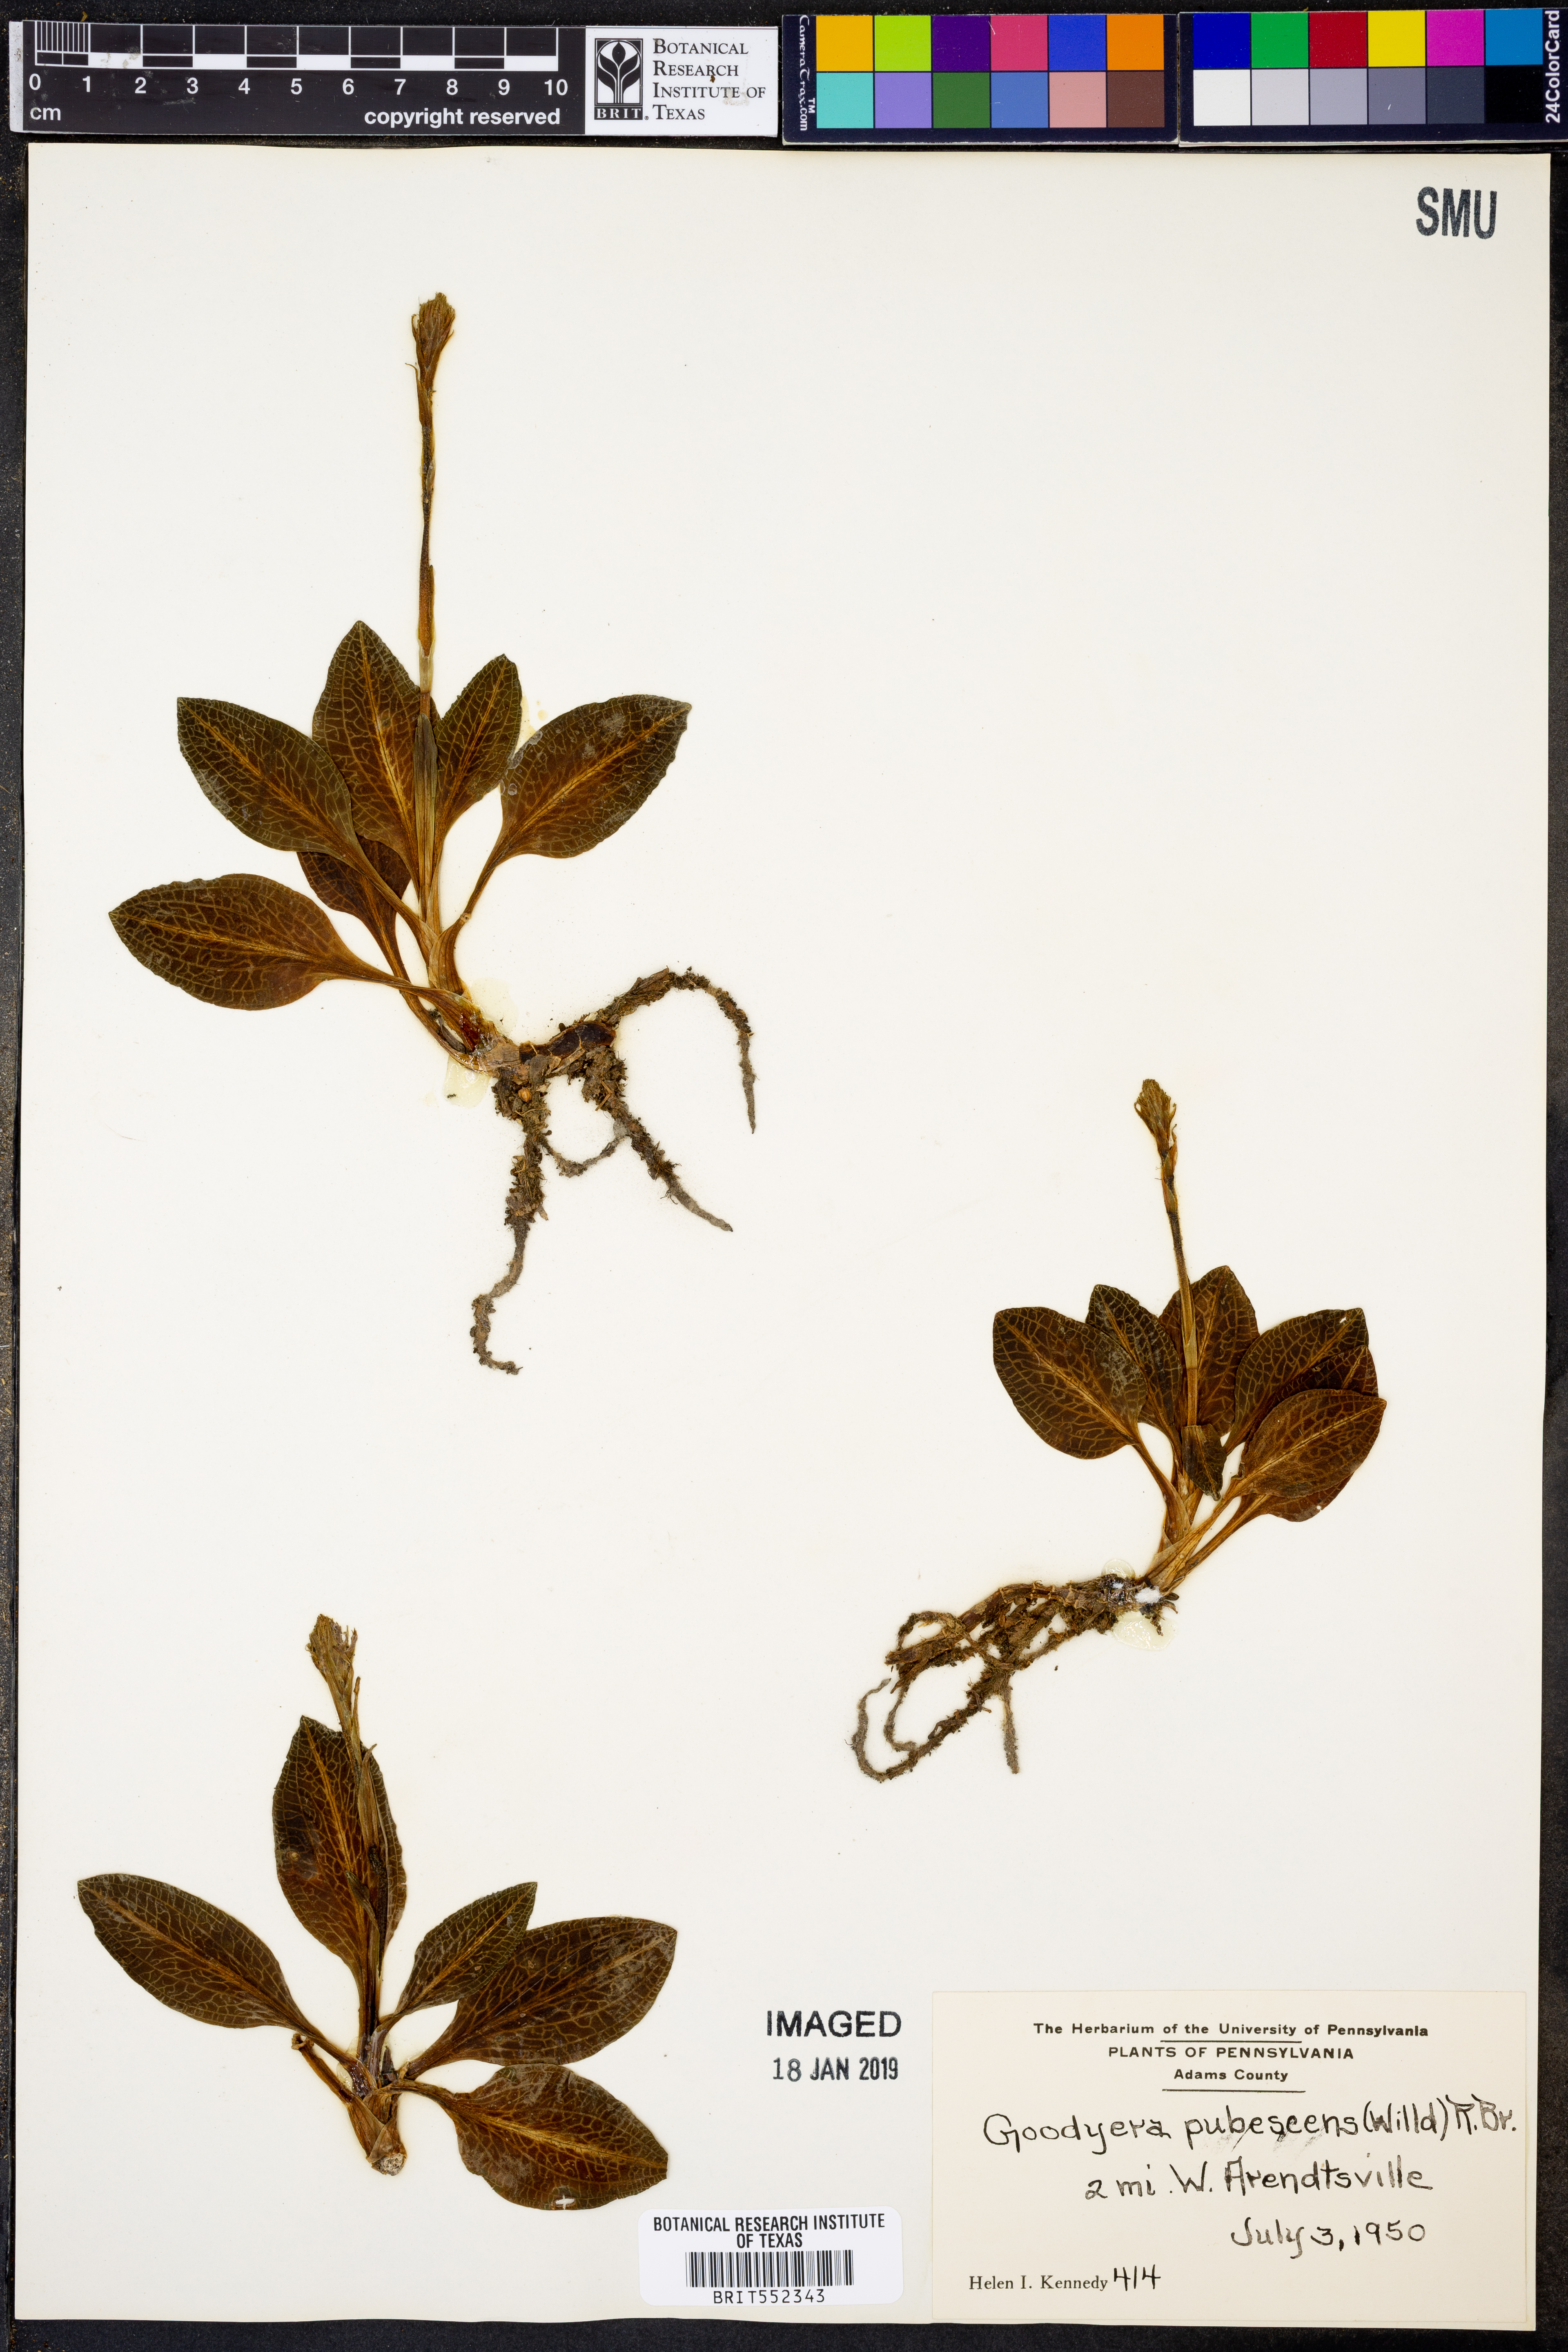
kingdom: Plantae
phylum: Tracheophyta
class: Liliopsida
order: Asparagales
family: Orchidaceae
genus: Goodyera
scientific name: Goodyera pubescens
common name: Downy rattlesnake-plantain
